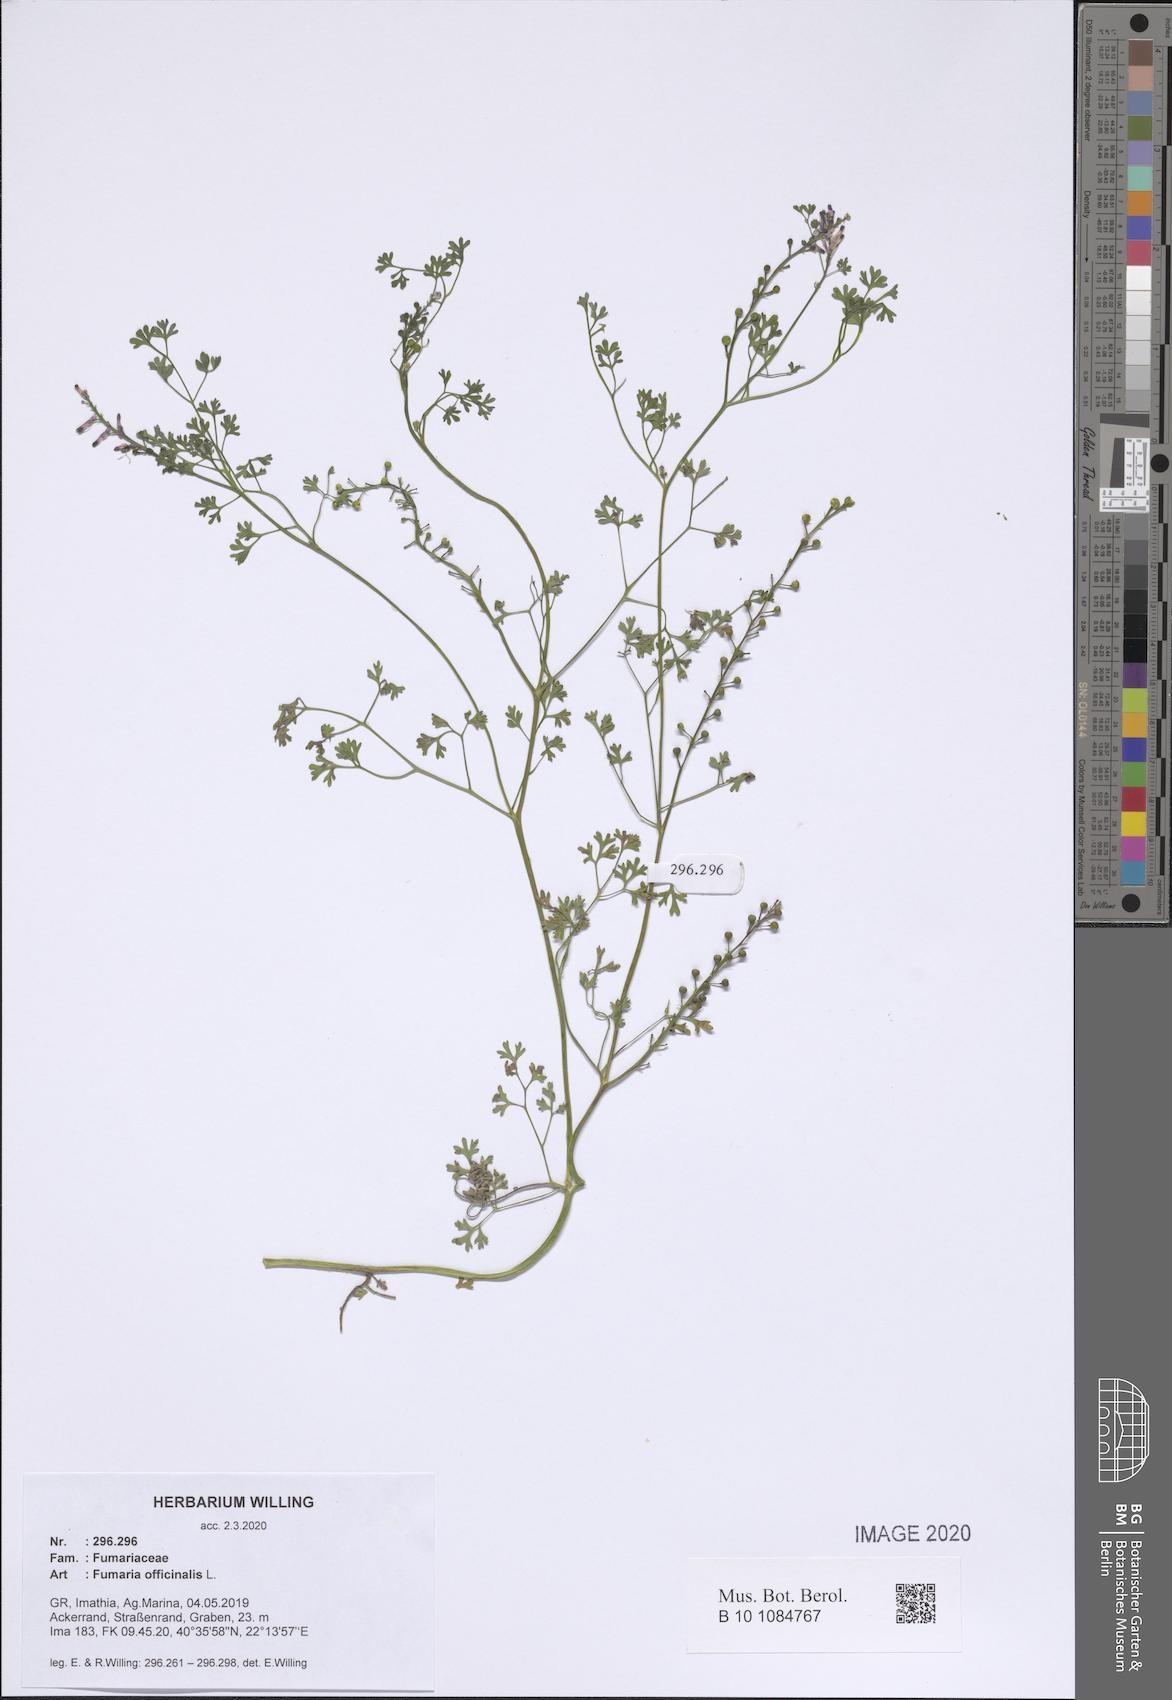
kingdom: Plantae
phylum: Tracheophyta
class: Magnoliopsida
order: Ranunculales
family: Papaveraceae
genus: Fumaria
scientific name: Fumaria officinalis
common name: Common fumitory
